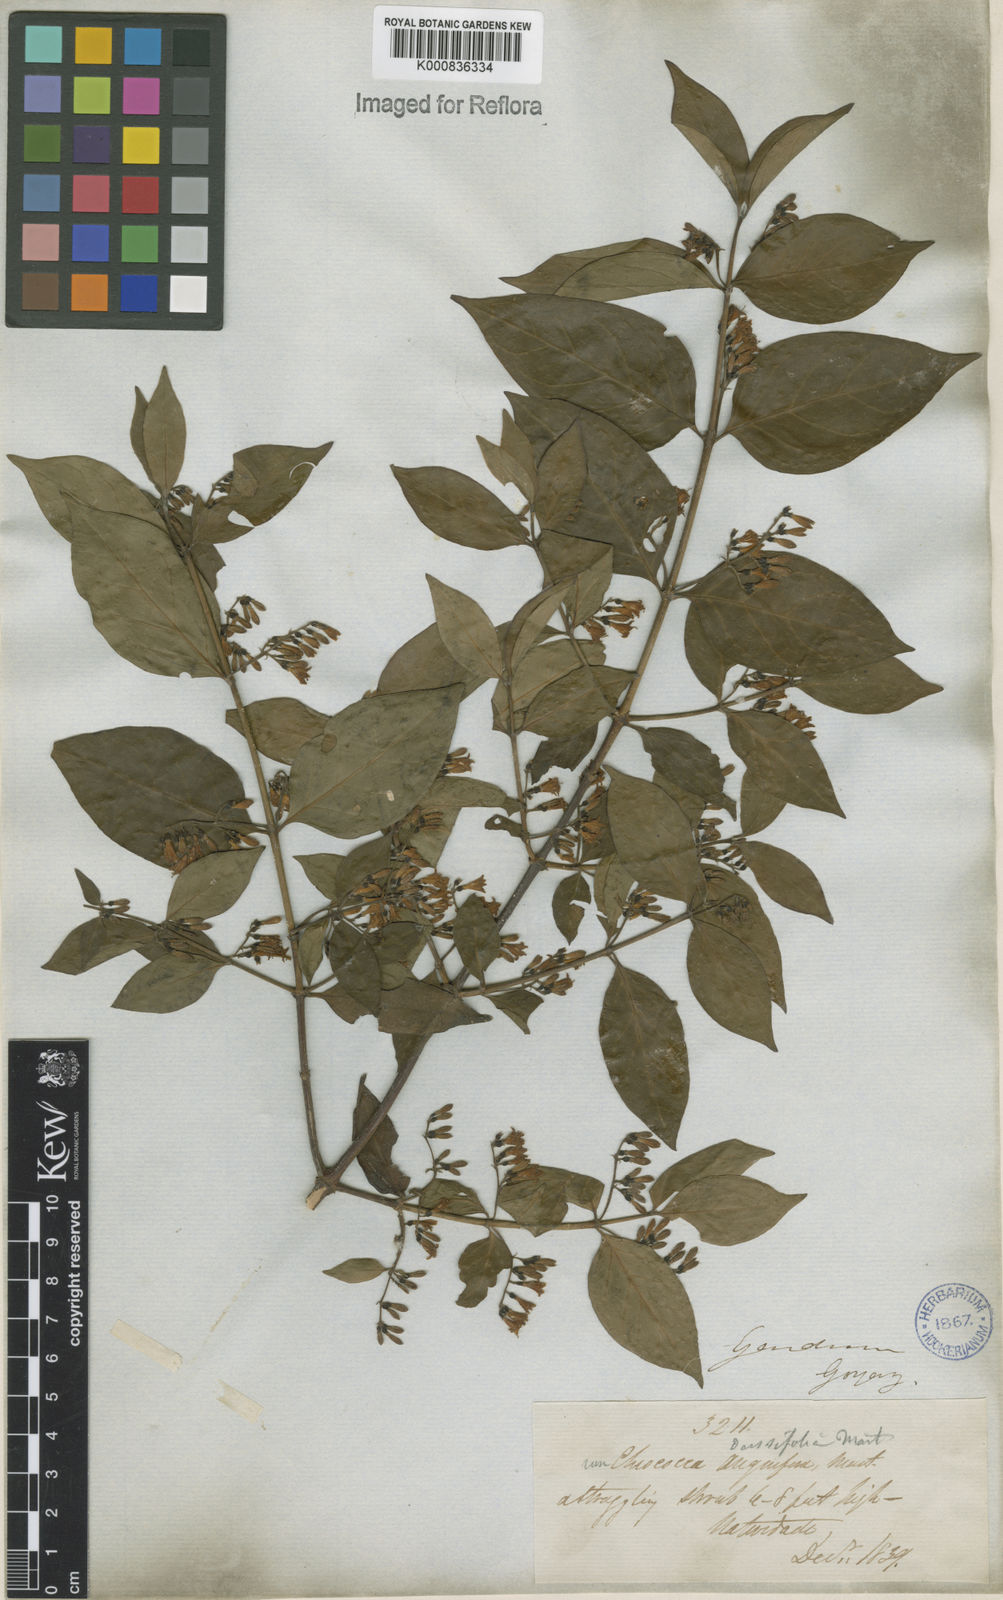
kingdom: Plantae
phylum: Tracheophyta
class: Magnoliopsida
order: Gentianales
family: Rubiaceae
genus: Chiococca
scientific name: Chiococca alba
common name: Snowberry
